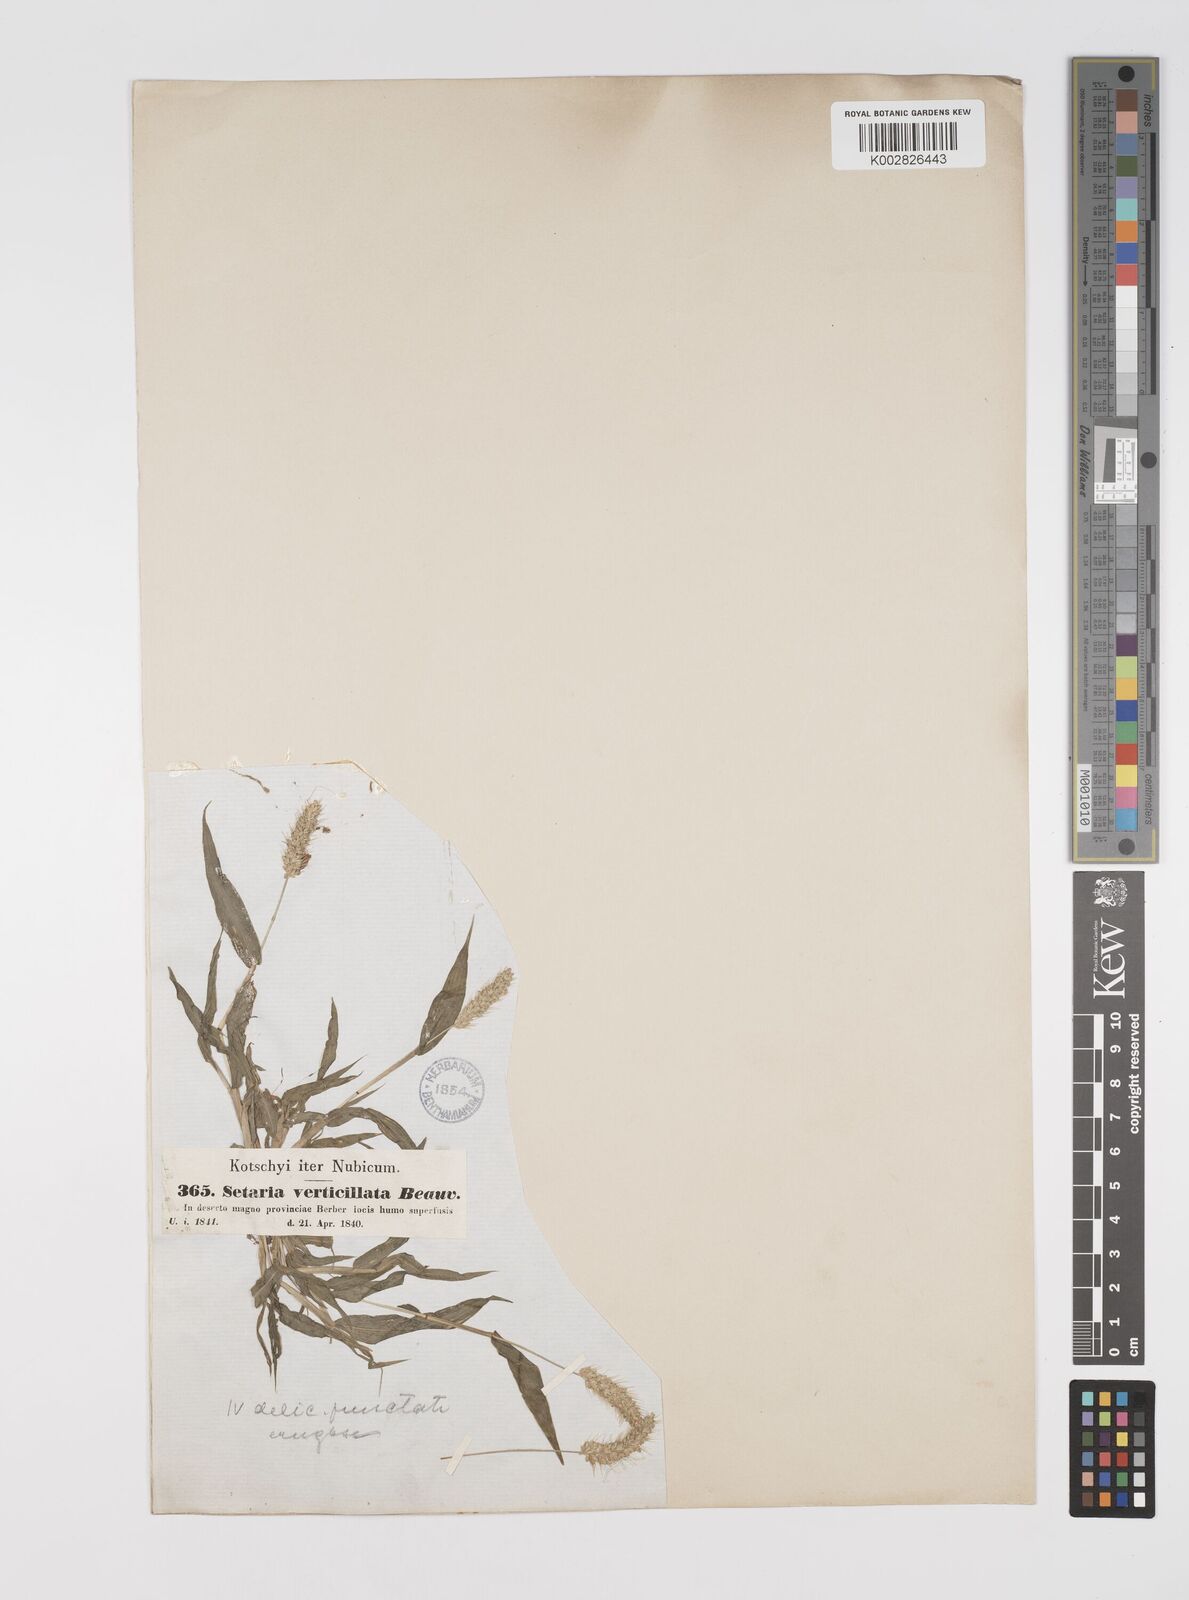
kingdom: Plantae
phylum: Tracheophyta
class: Liliopsida
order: Poales
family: Poaceae
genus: Setaria
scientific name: Setaria verticillata
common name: Hooked bristlegrass
